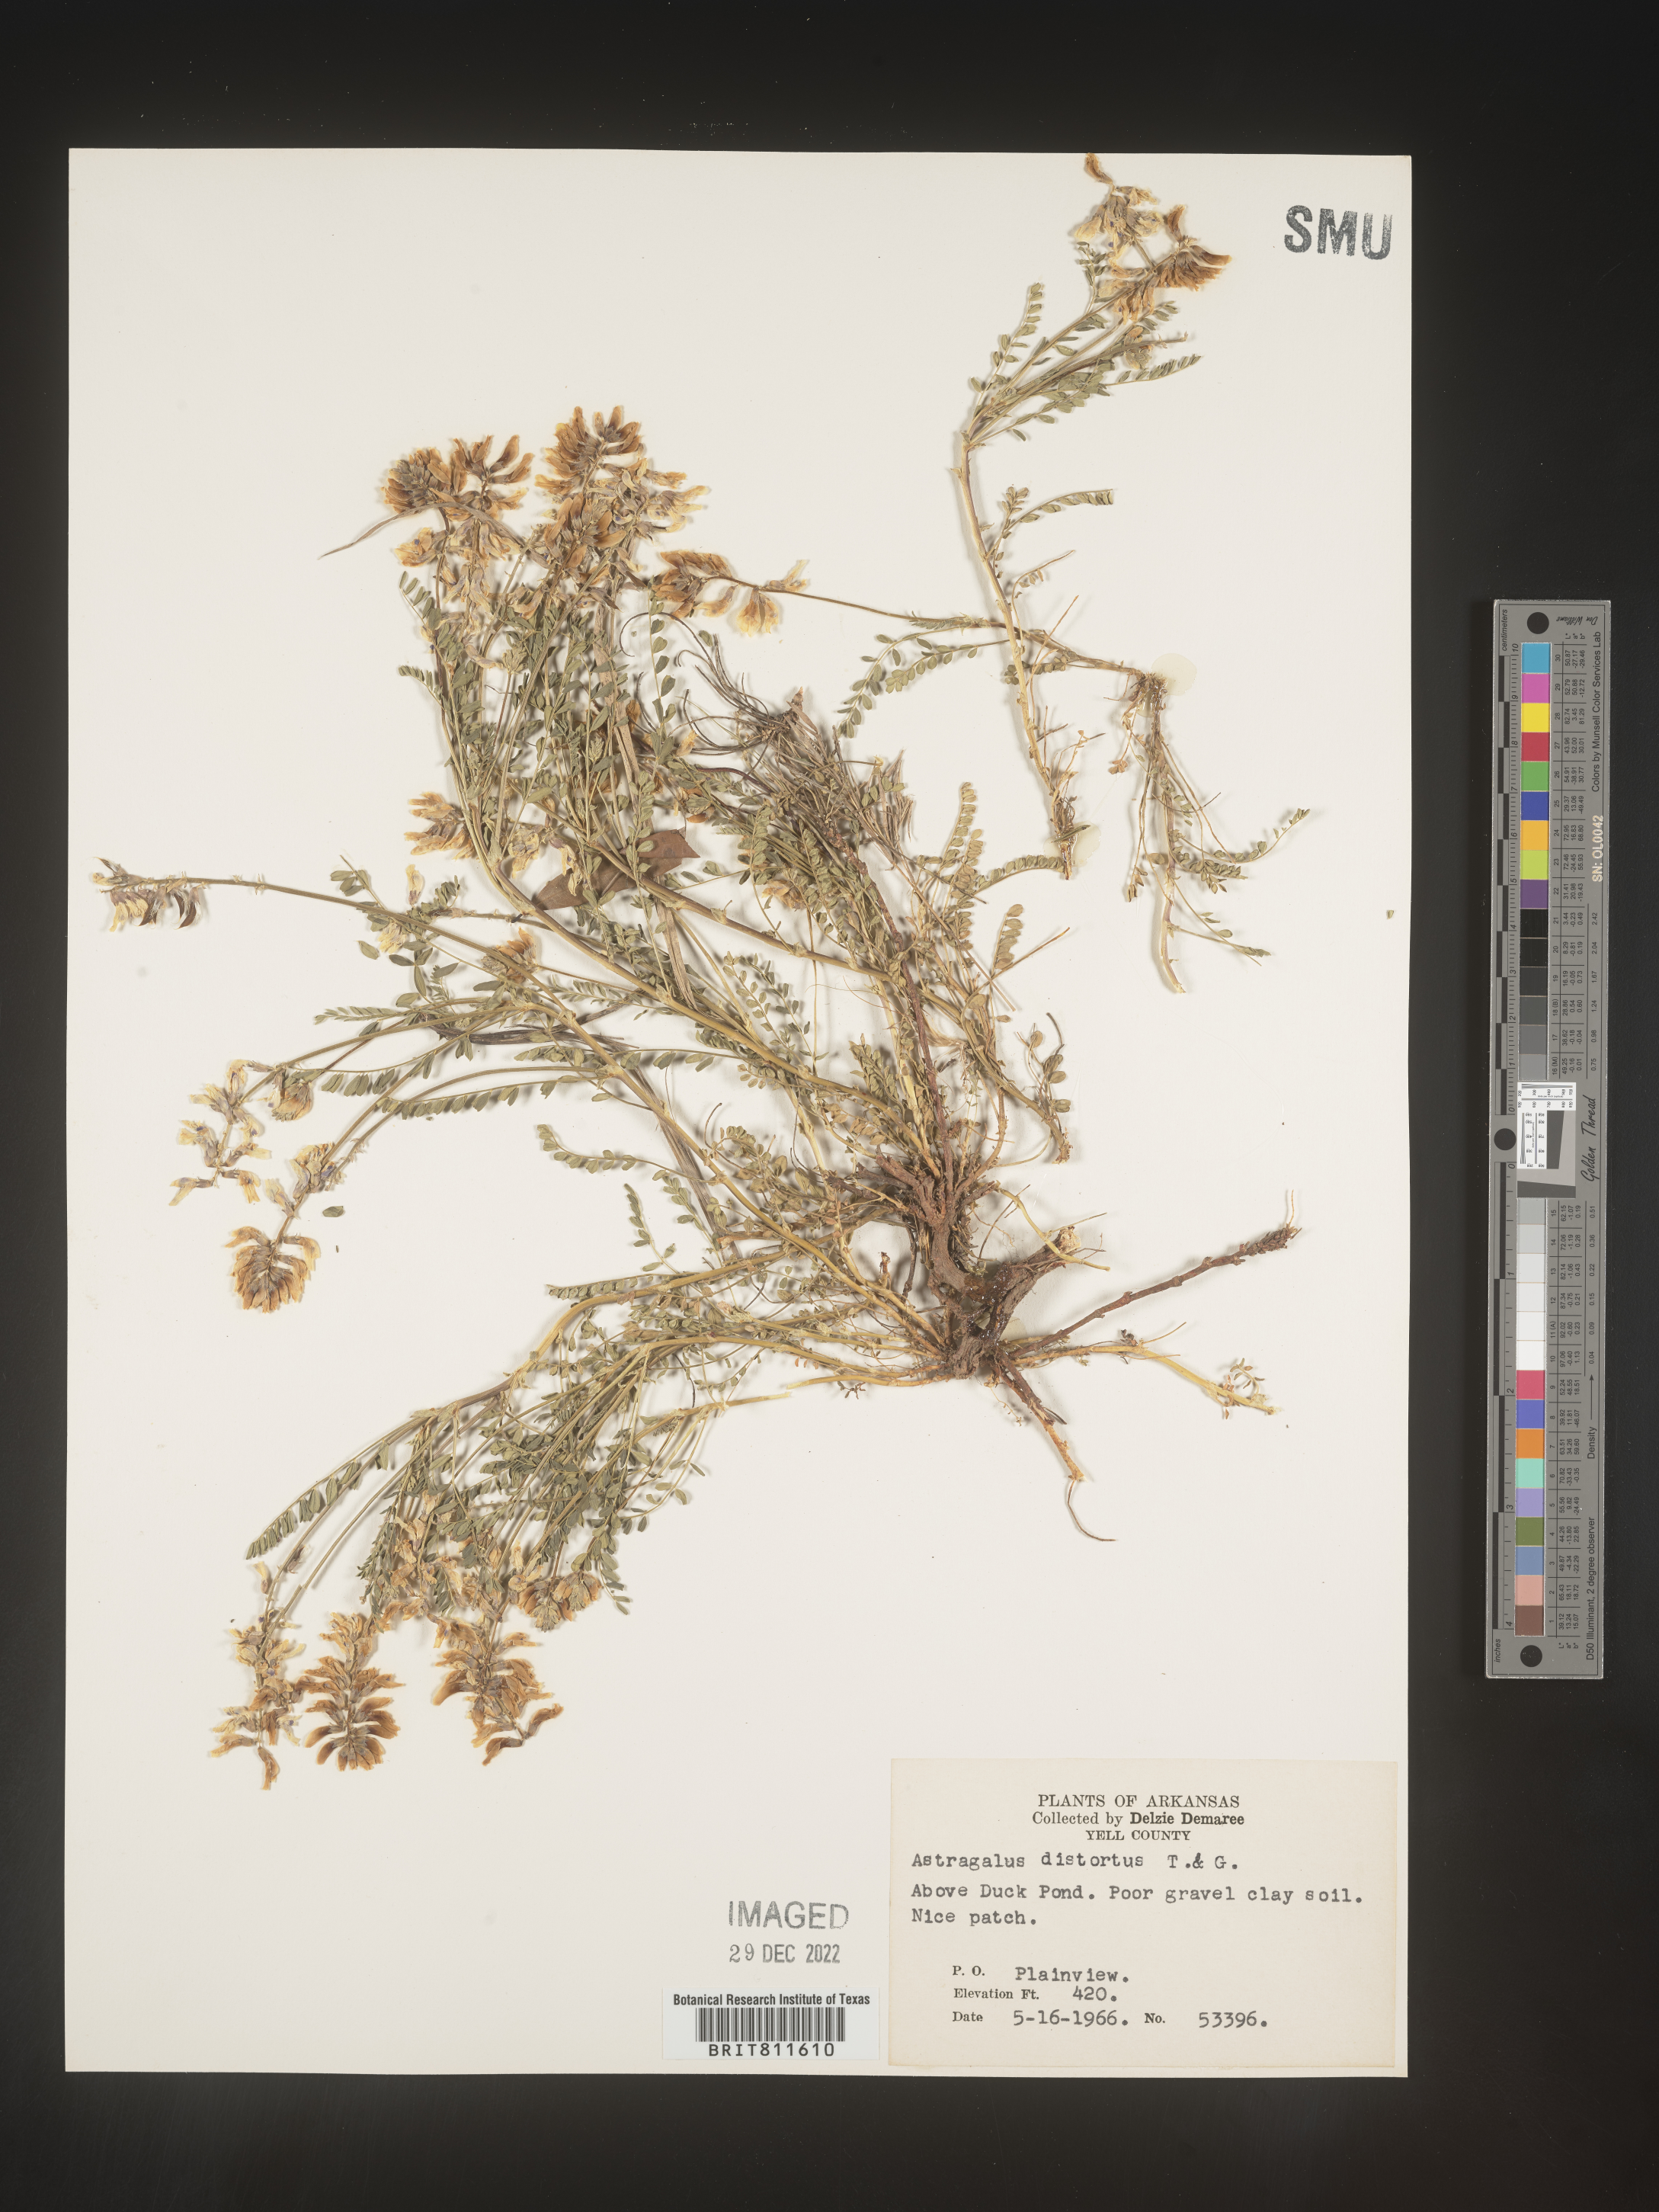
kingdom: Plantae
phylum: Tracheophyta
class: Magnoliopsida
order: Fabales
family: Fabaceae
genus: Astragalus
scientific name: Astragalus distortus
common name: Ozark milk-vetch
